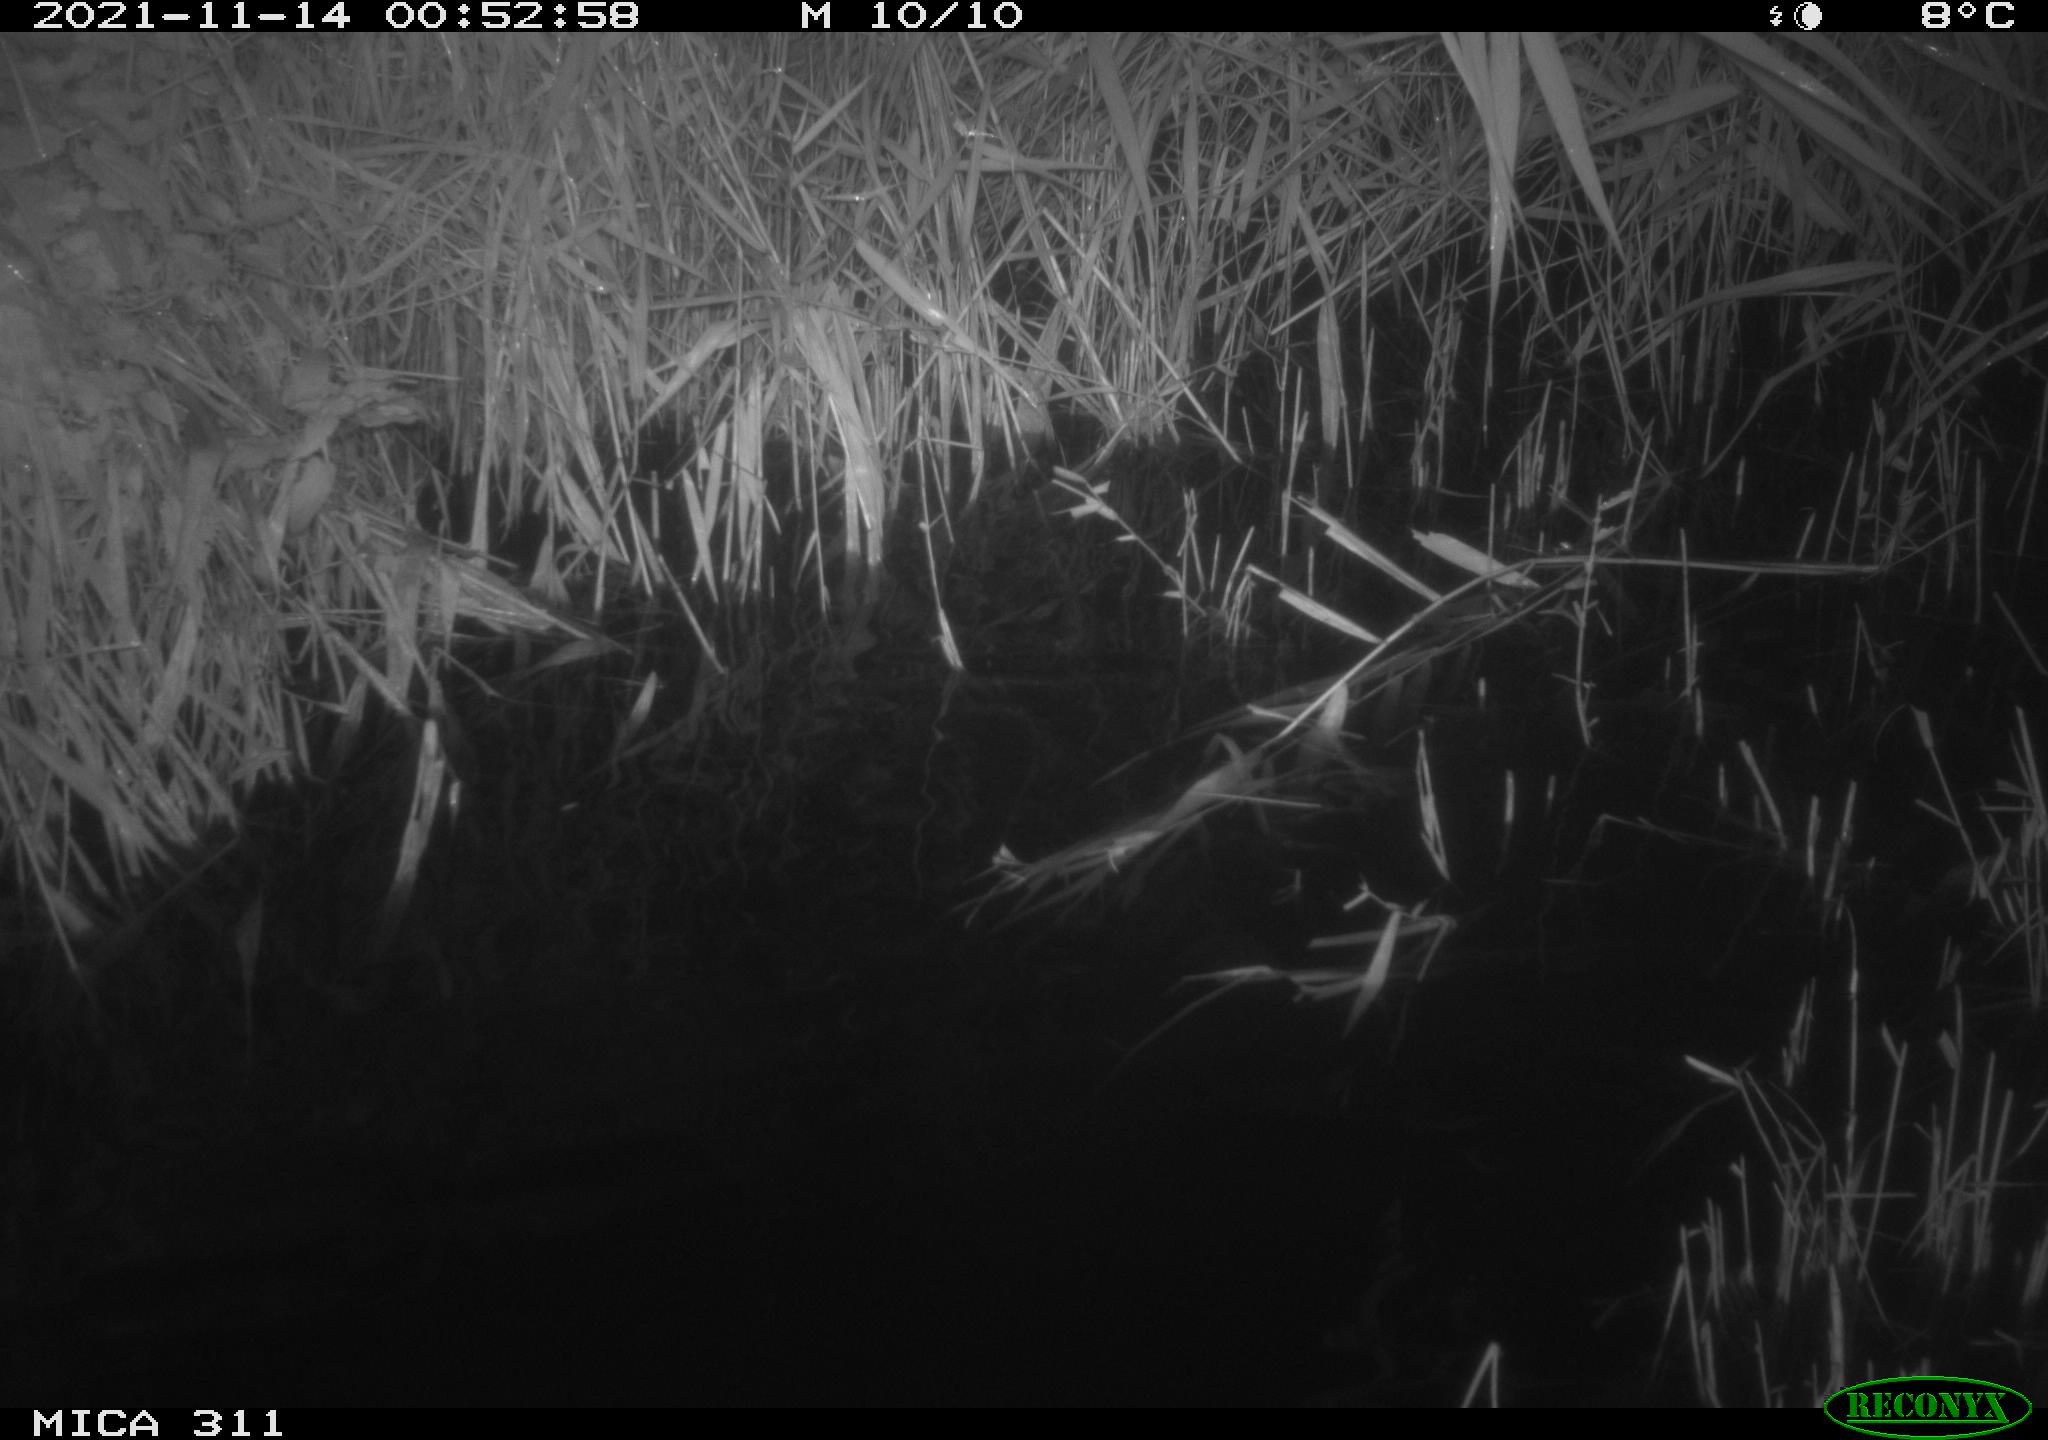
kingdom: Animalia
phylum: Chordata
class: Mammalia
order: Rodentia
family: Muridae
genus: Rattus
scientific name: Rattus norvegicus
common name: Brown rat
